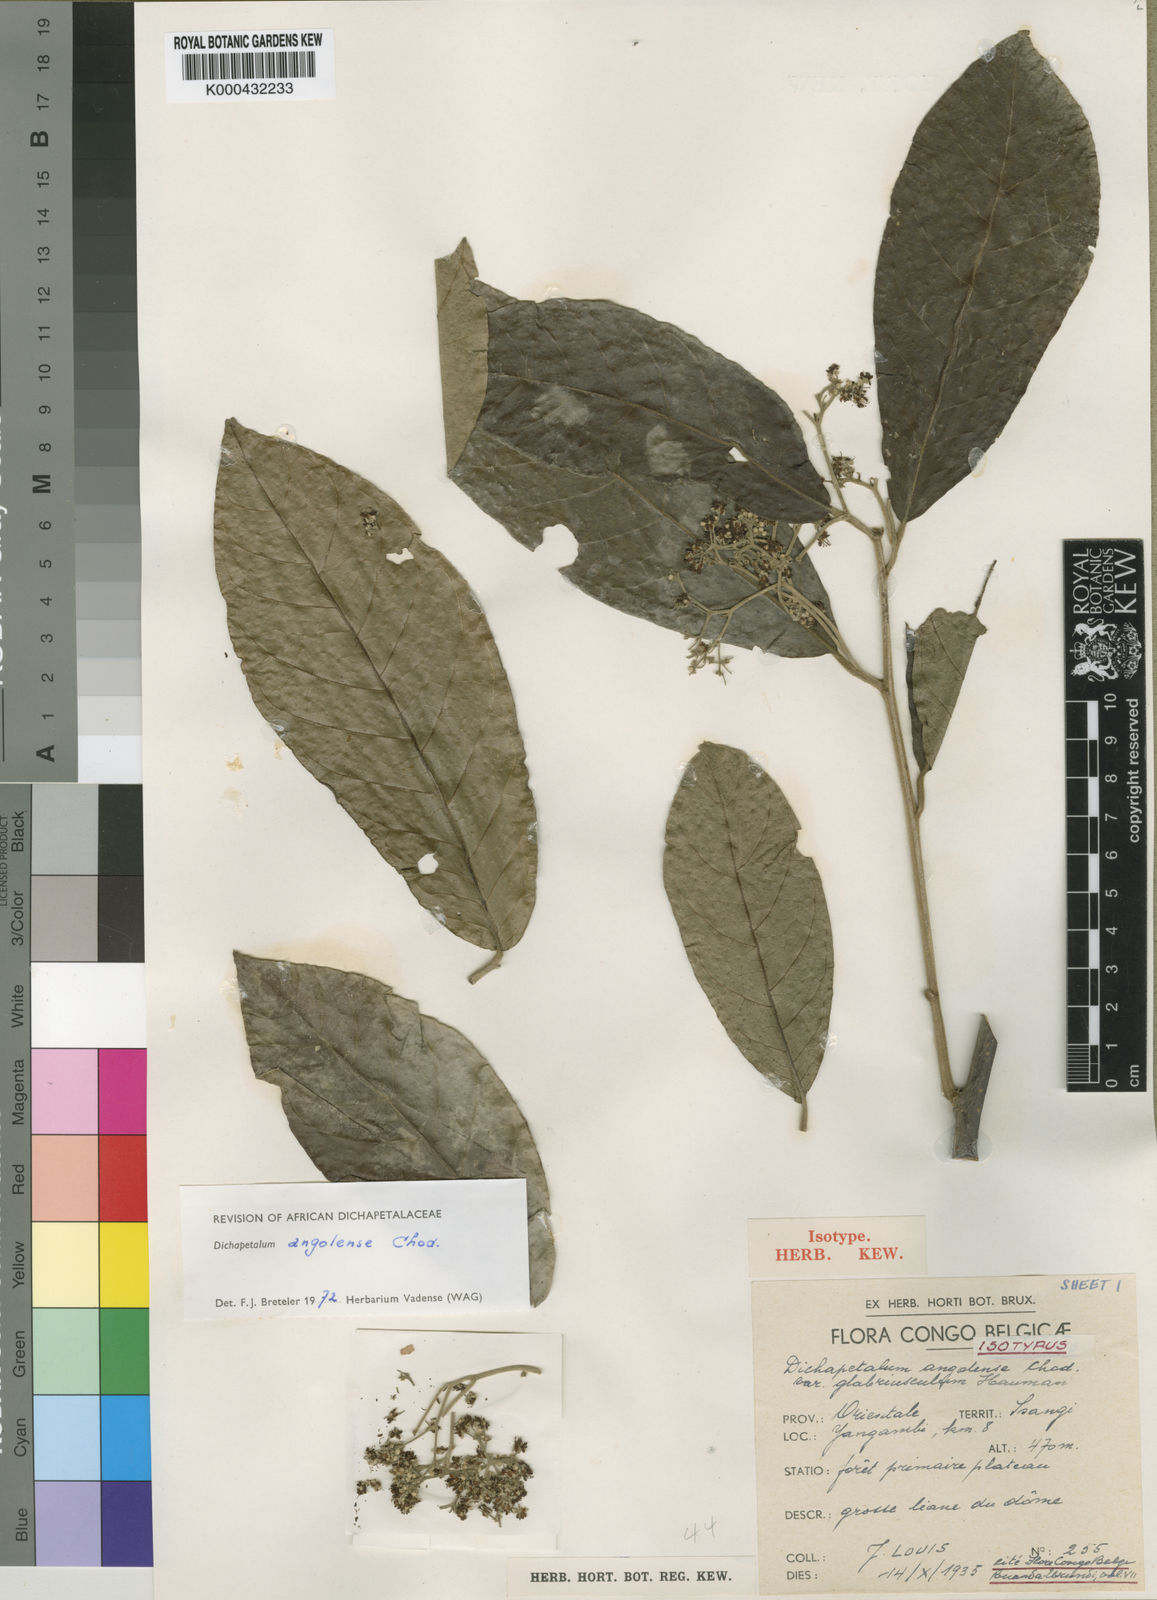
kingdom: Plantae
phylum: Tracheophyta
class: Magnoliopsida
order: Malpighiales
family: Dichapetalaceae
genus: Dichapetalum
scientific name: Dichapetalum angolense
